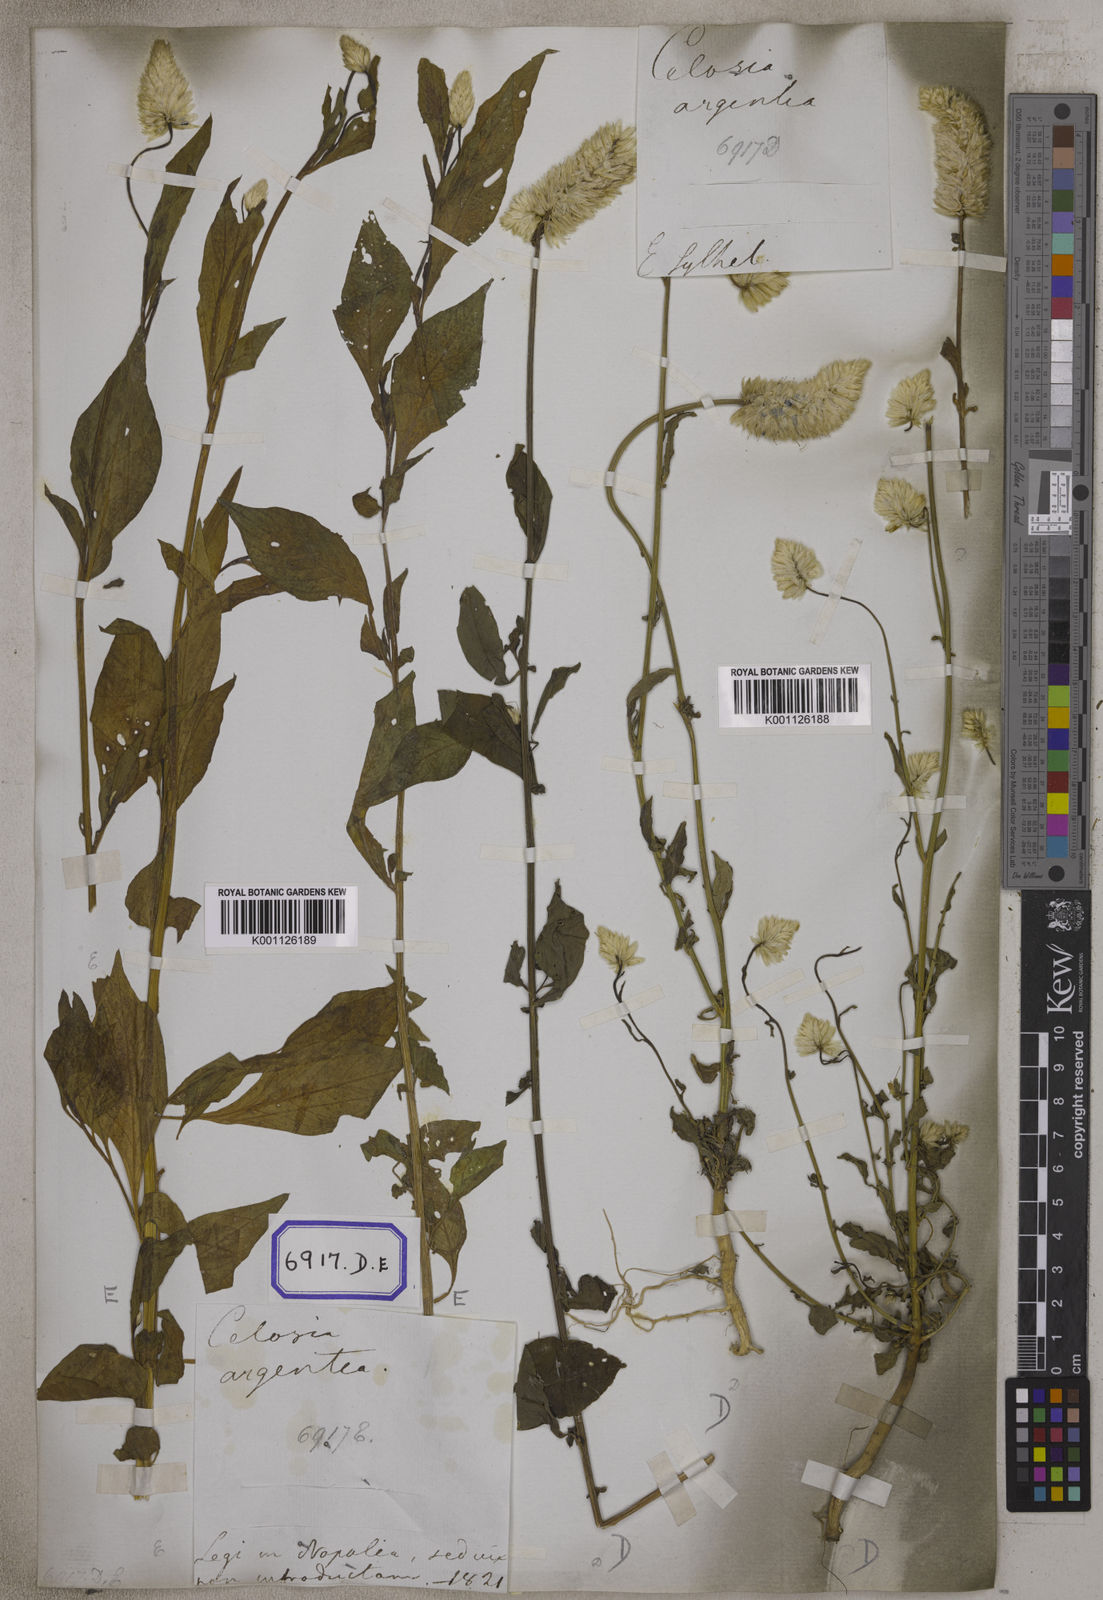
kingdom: Plantae
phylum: Tracheophyta
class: Magnoliopsida
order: Caryophyllales
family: Amaranthaceae
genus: Celosia
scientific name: Celosia argentea
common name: Feather cockscomb
